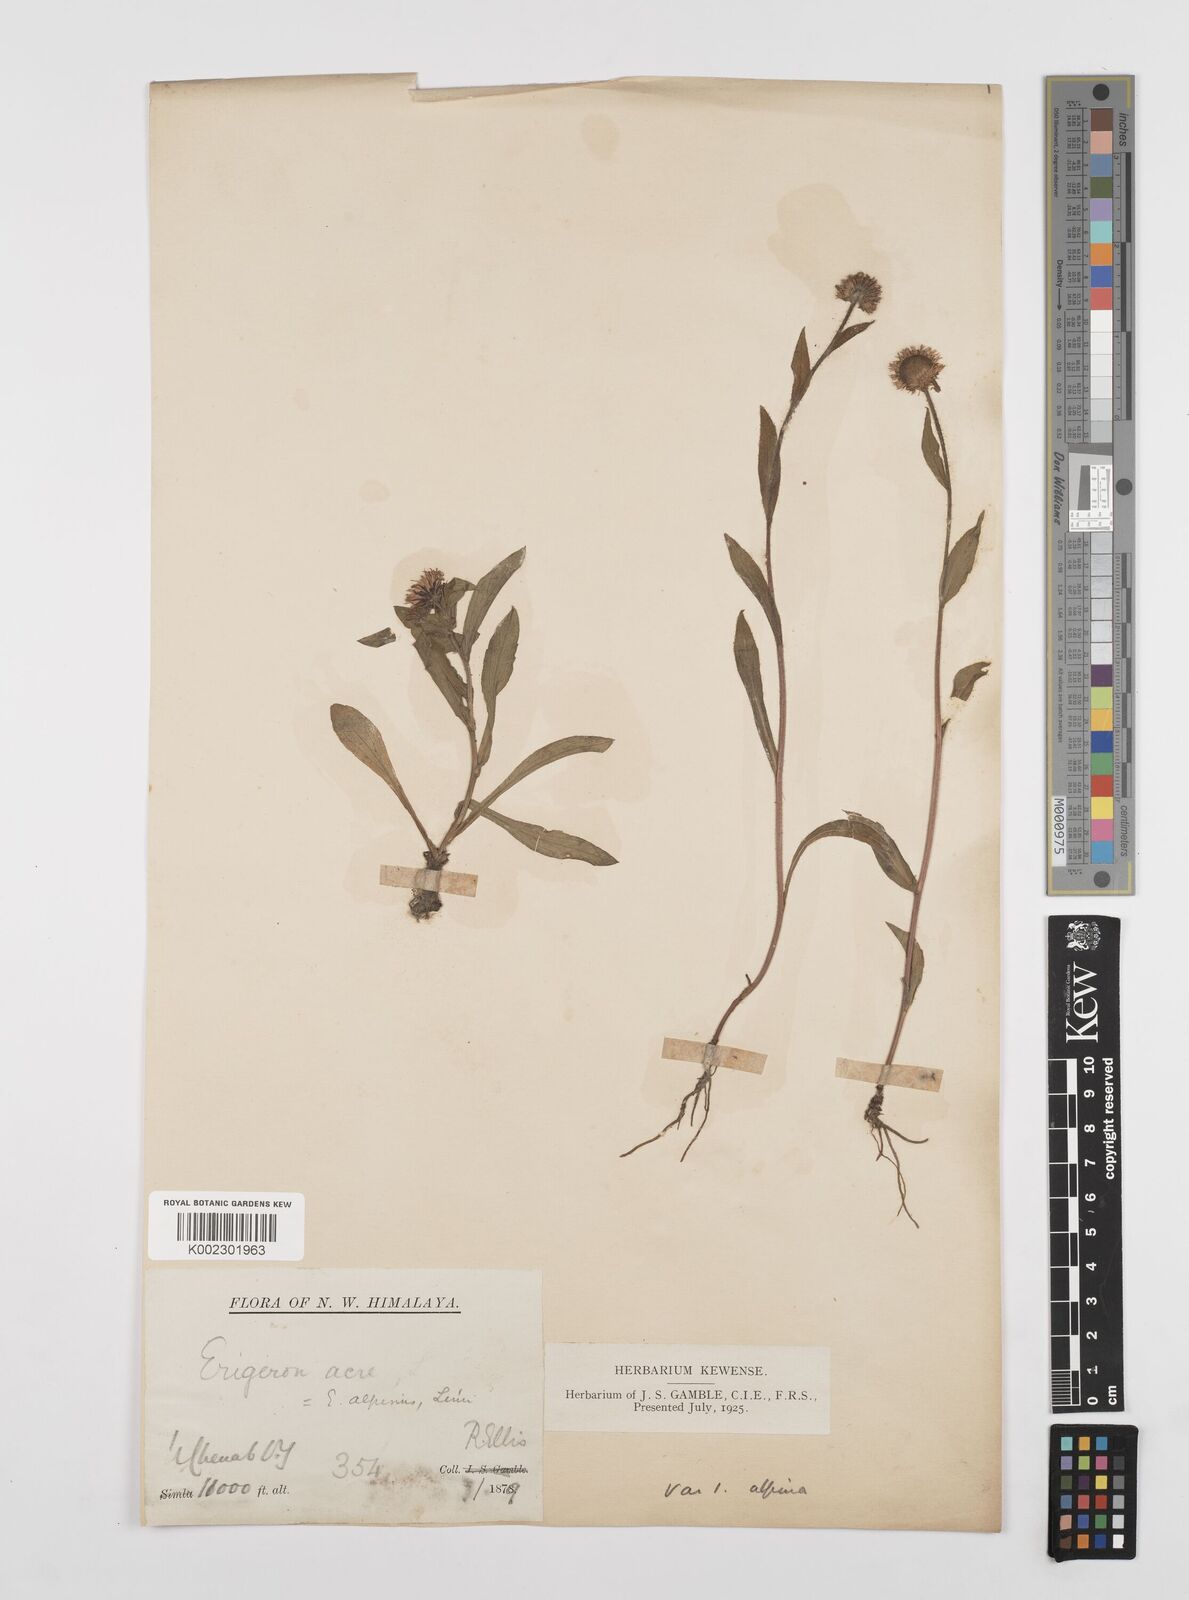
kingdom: Plantae
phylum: Tracheophyta
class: Magnoliopsida
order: Asterales
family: Asteraceae
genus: Erigeron
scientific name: Erigeron alpinus
